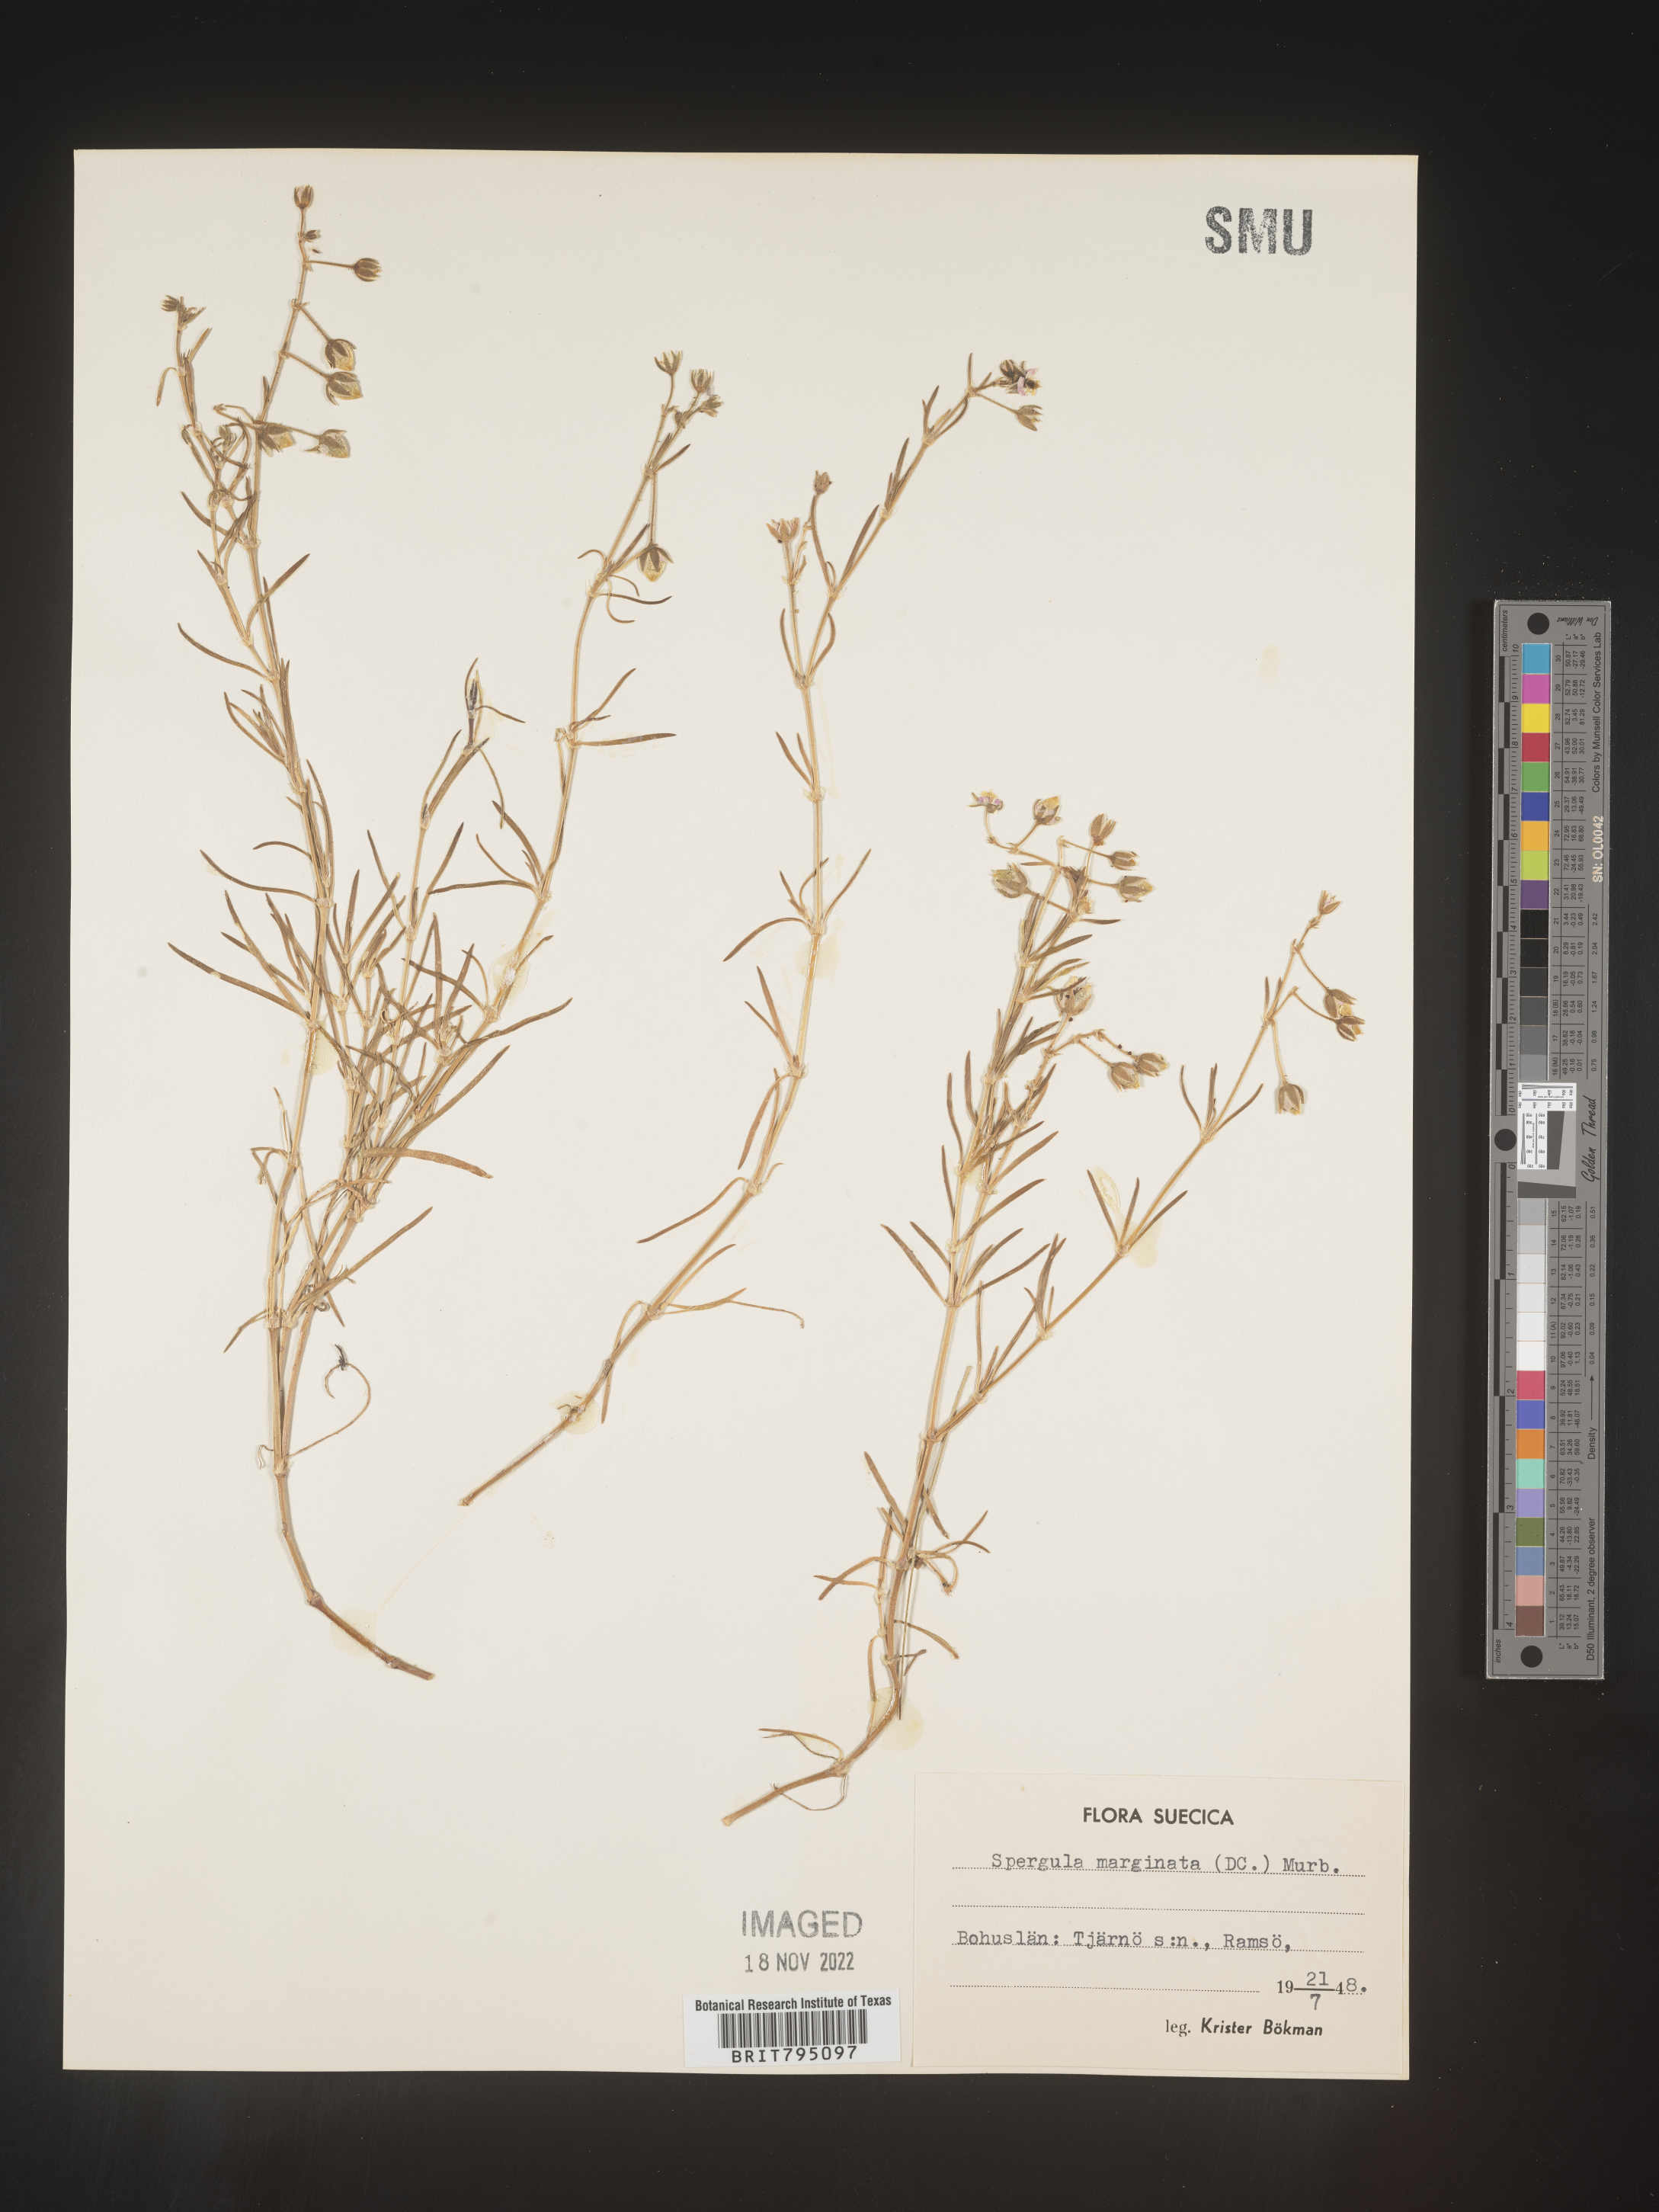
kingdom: Plantae
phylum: Tracheophyta
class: Magnoliopsida
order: Caryophyllales
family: Caryophyllaceae
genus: Spergularia
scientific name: Spergularia media
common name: Greater sea-spurrey
